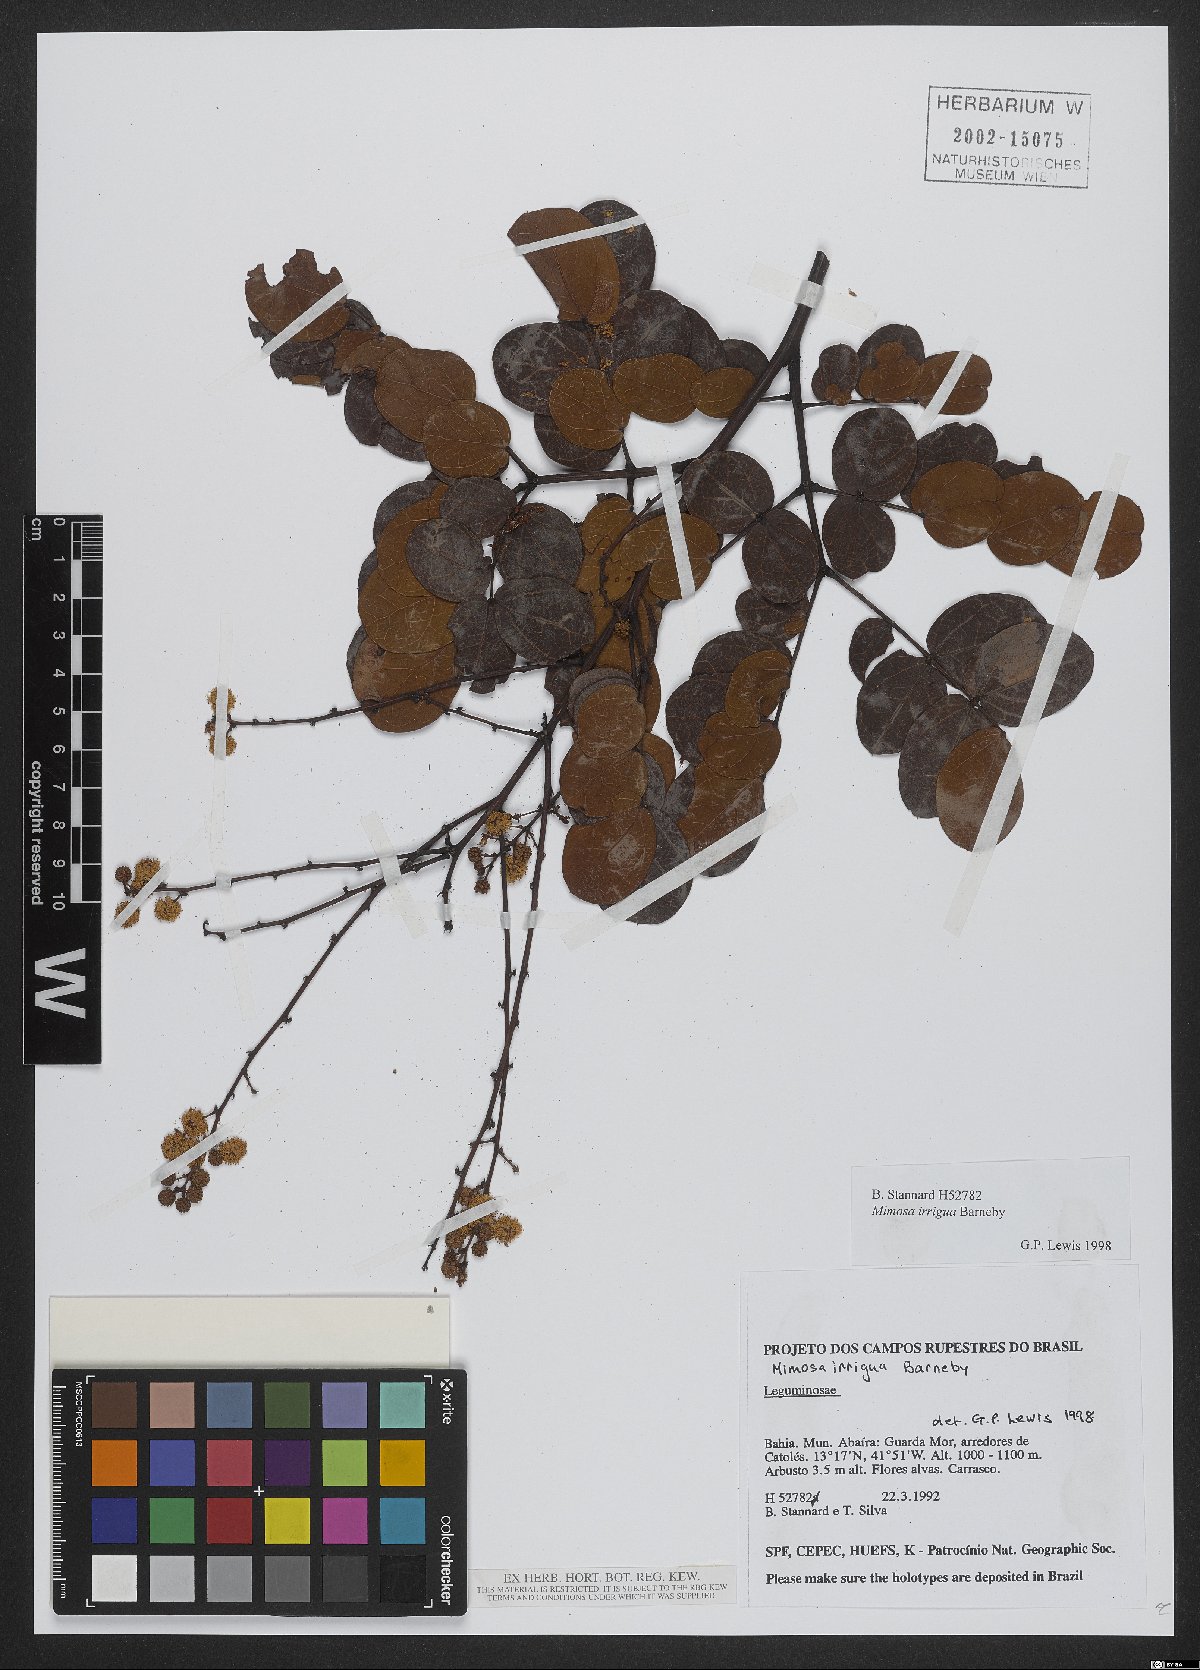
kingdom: Plantae
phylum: Tracheophyta
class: Magnoliopsida
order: Fabales
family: Fabaceae
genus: Mimosa
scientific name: Mimosa irrigua
